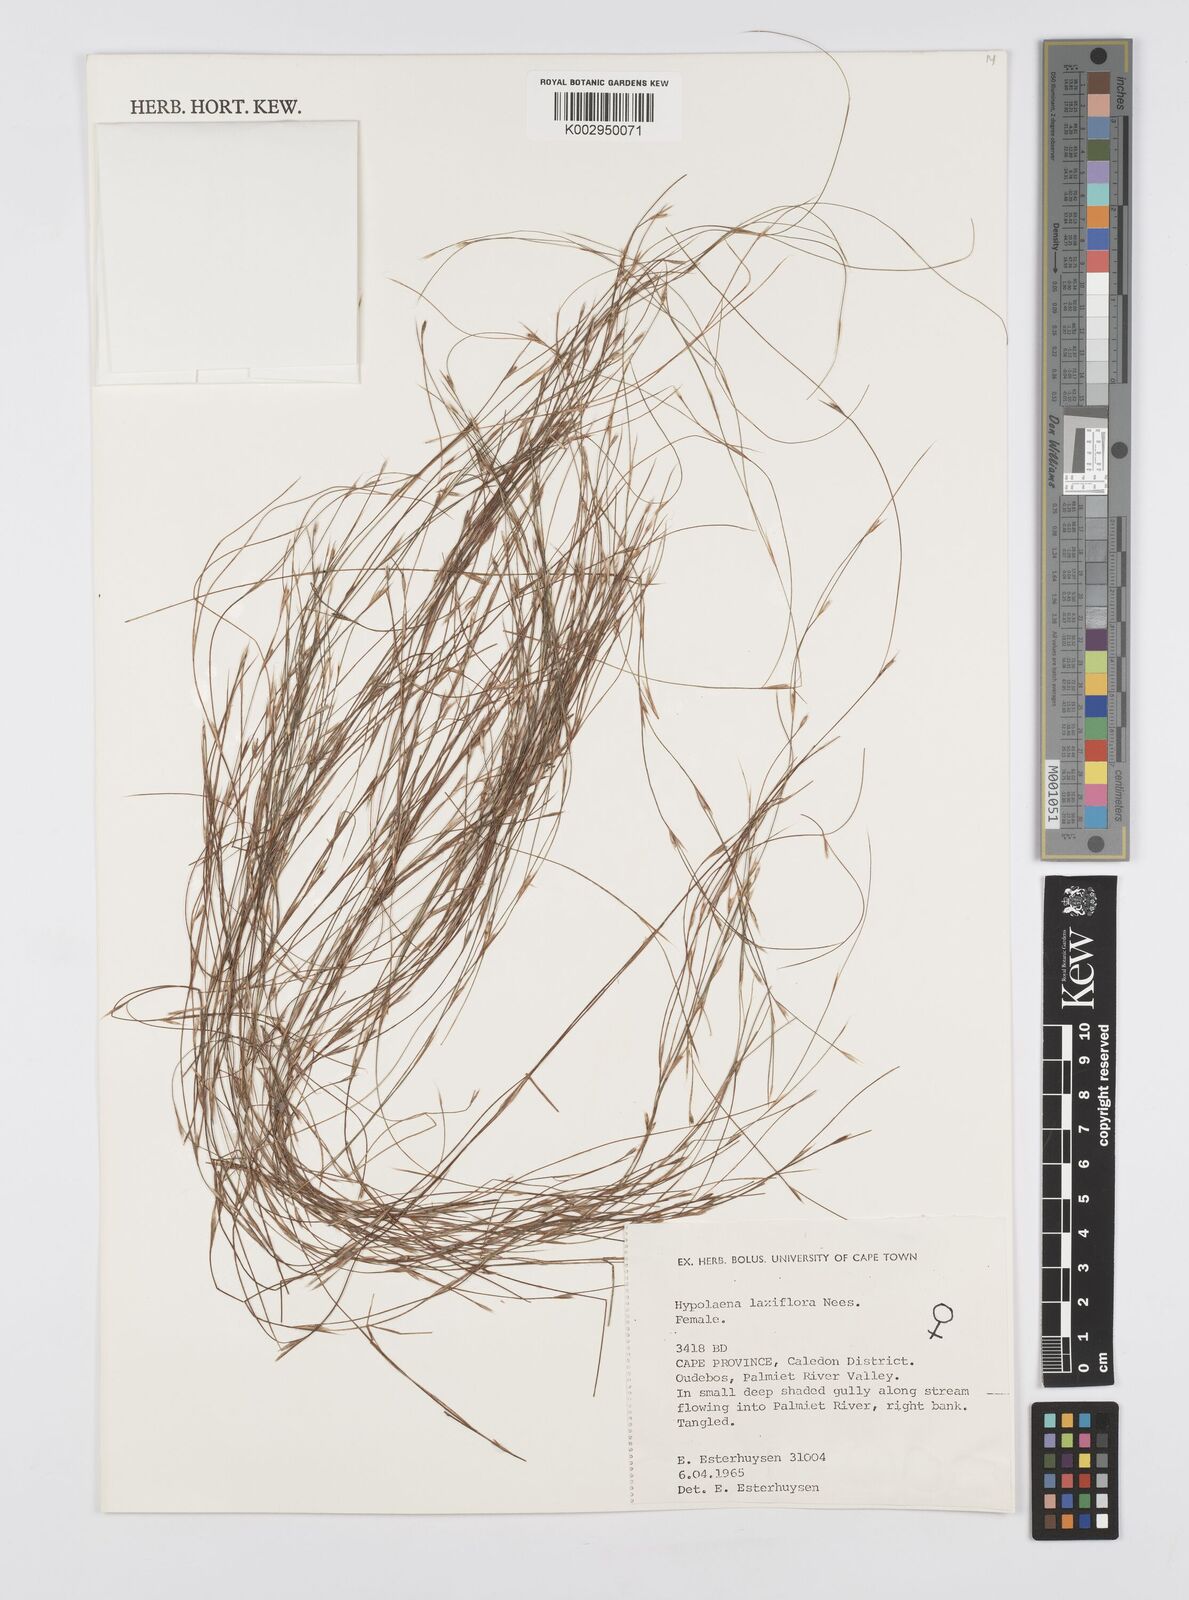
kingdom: Plantae
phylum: Tracheophyta
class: Liliopsida
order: Poales
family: Restionaceae
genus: Anthochortus
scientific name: Anthochortus laxiflorus
